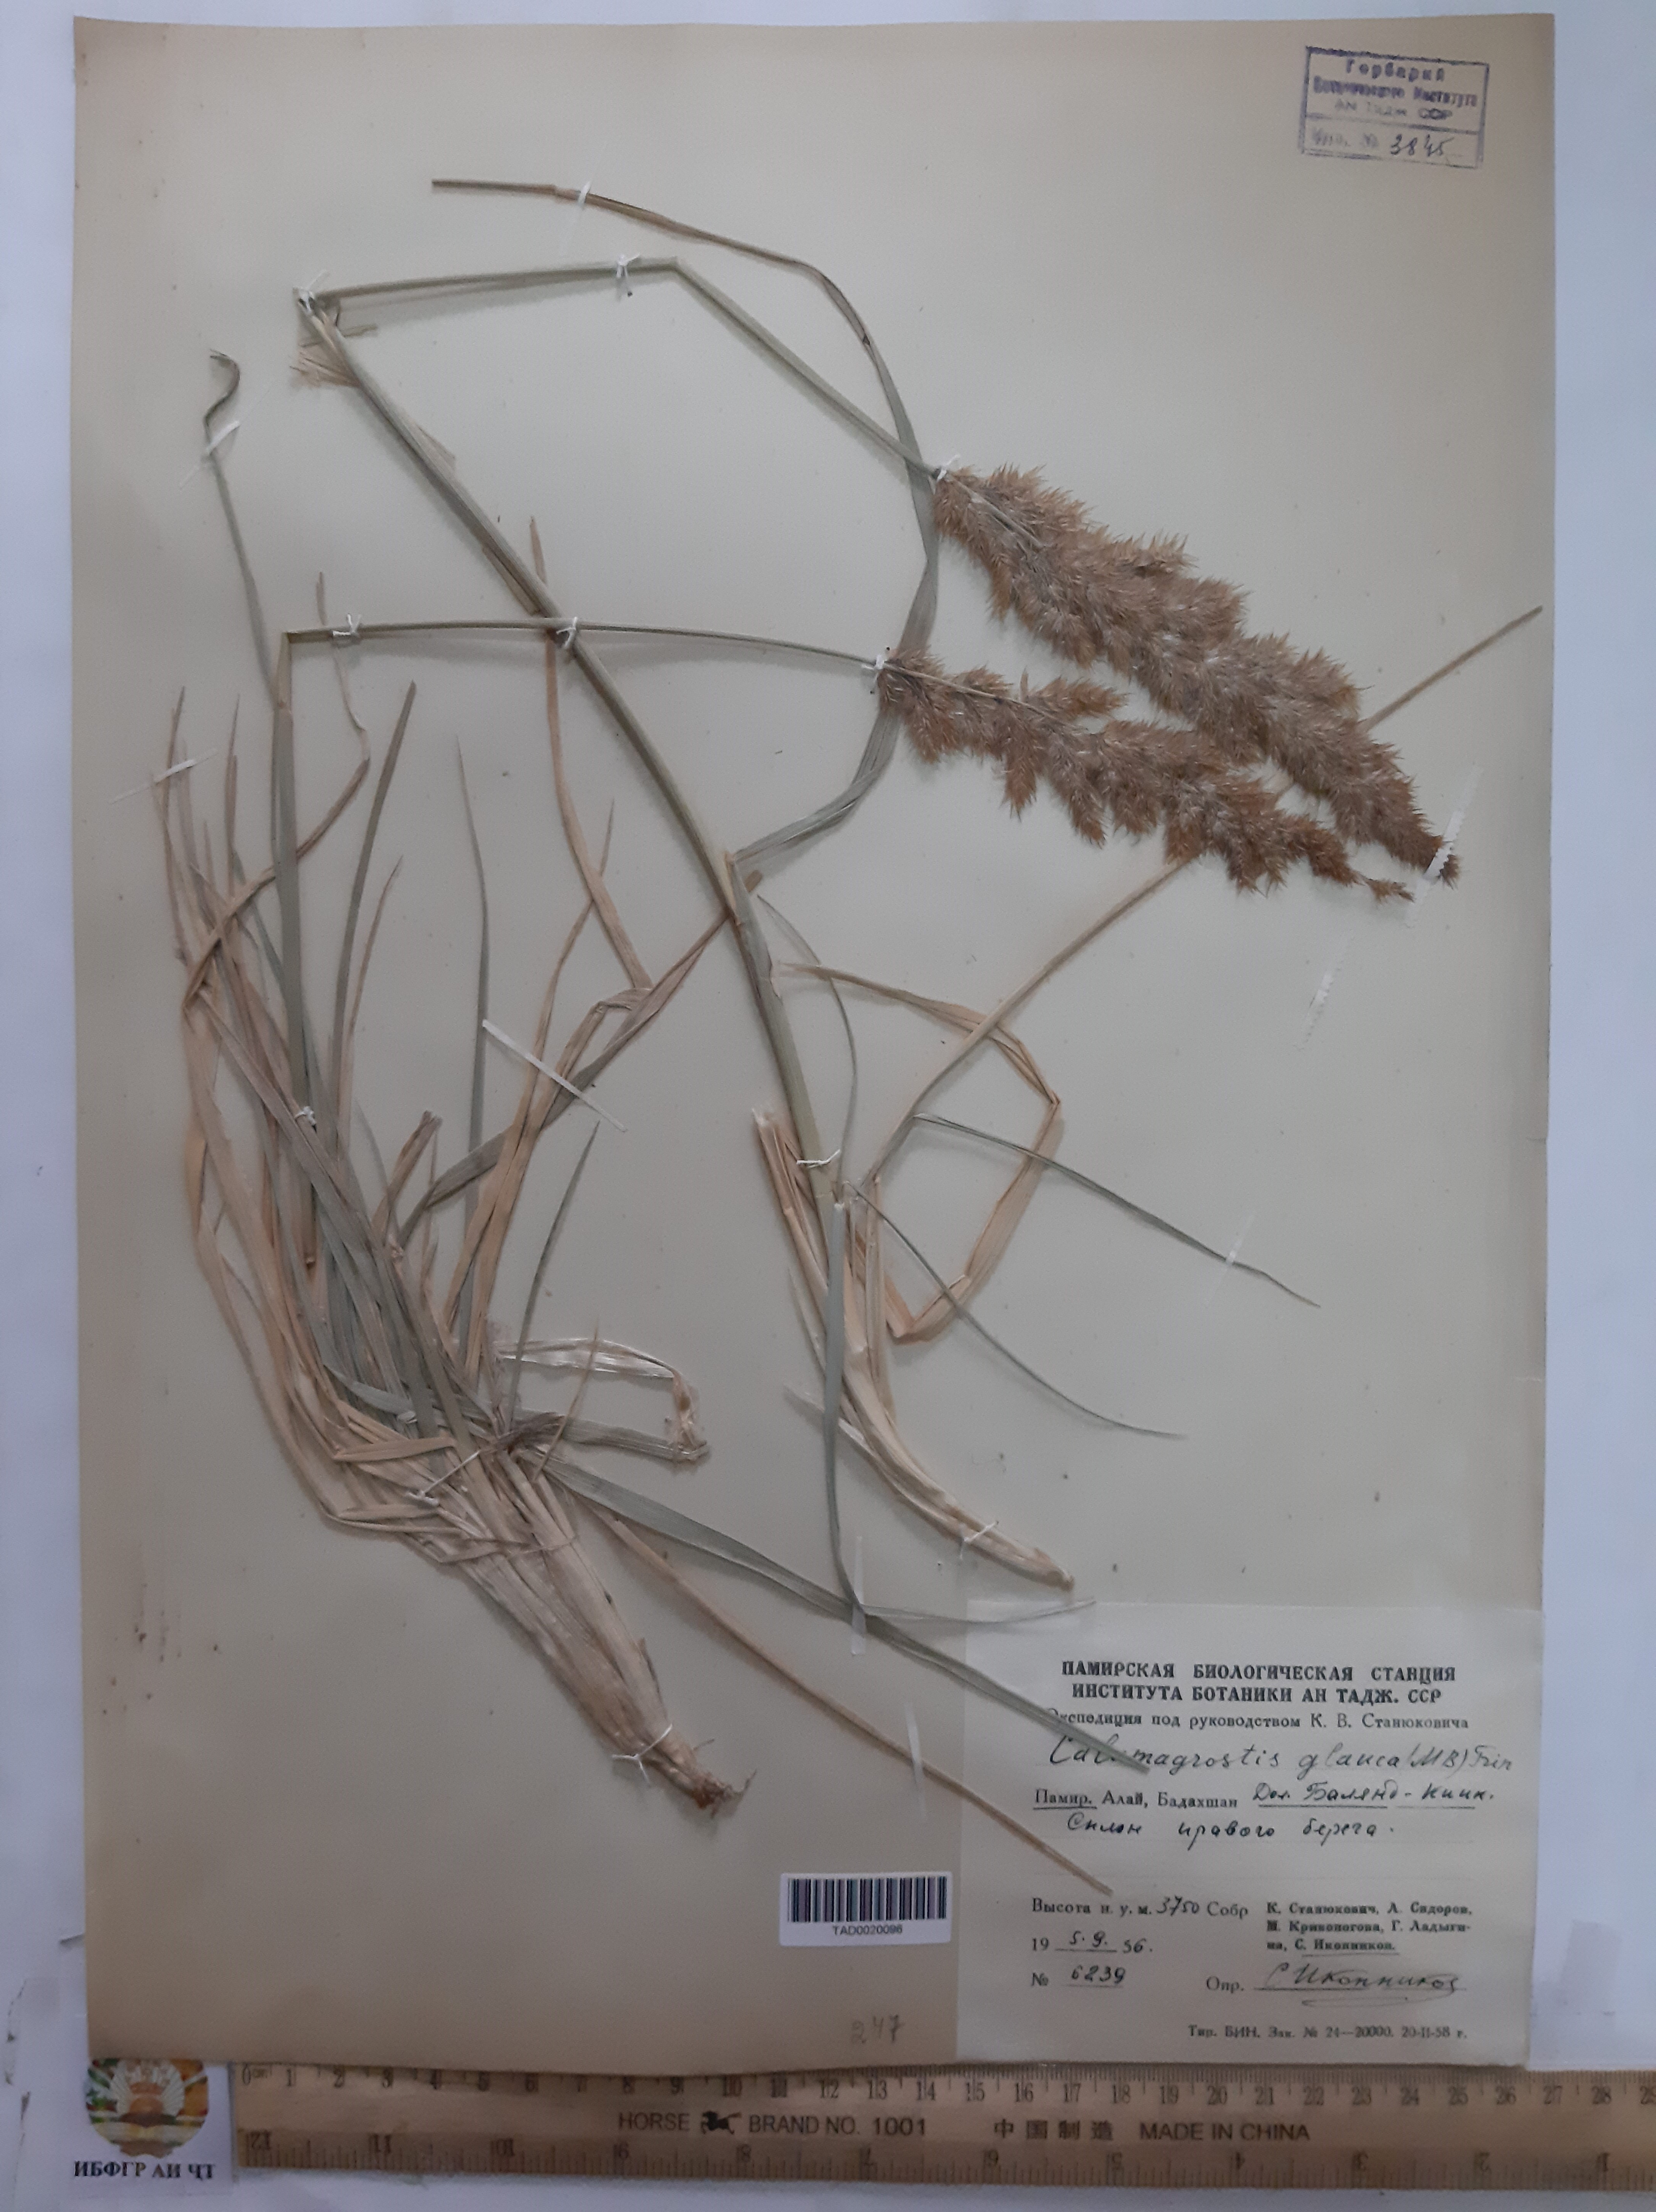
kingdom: Plantae
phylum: Tracheophyta
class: Liliopsida
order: Poales
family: Poaceae
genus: Calamagrostis
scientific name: Calamagrostis pseudophragmites
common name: Coastal small-reed
